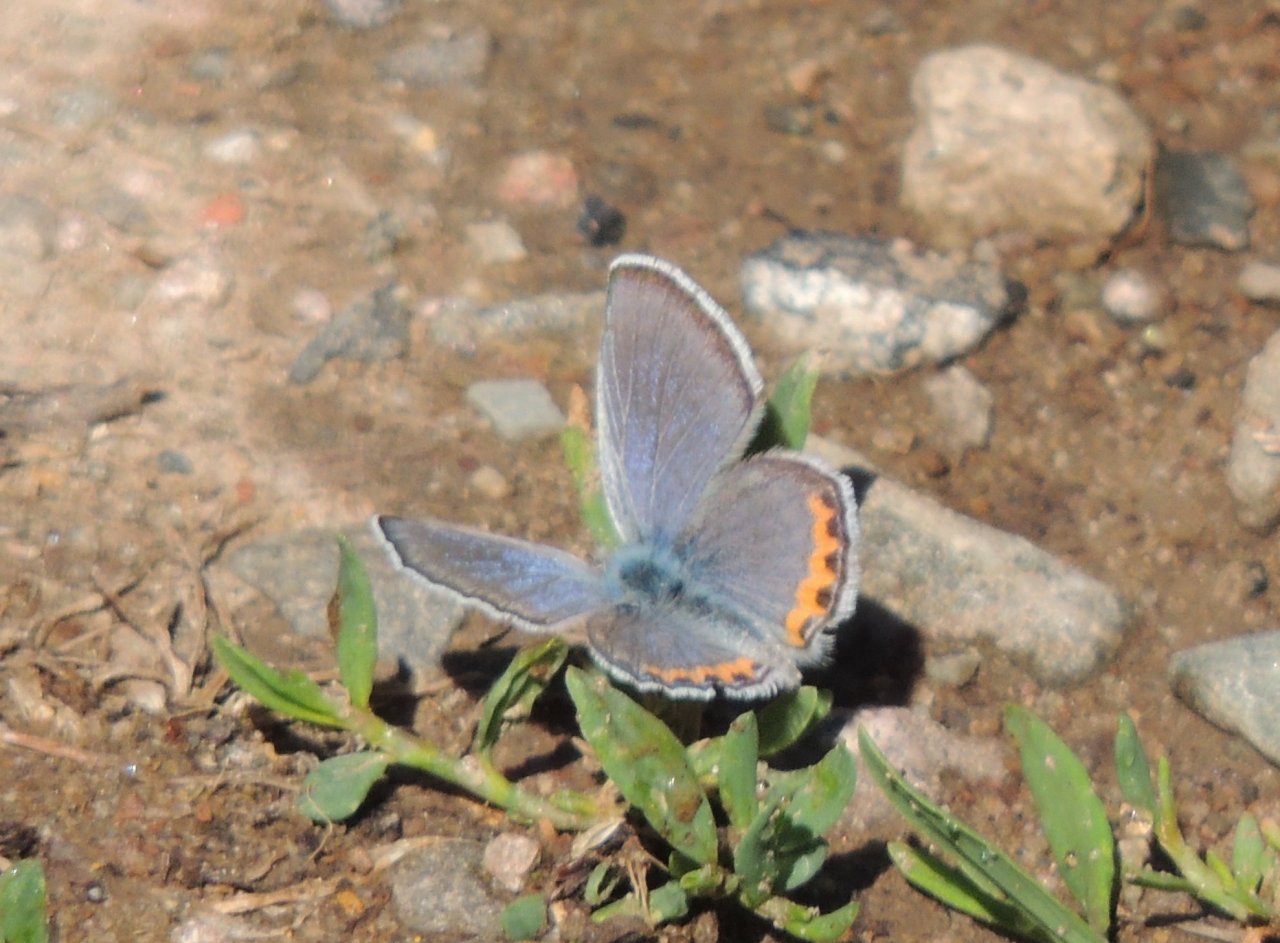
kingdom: Animalia
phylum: Arthropoda
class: Insecta
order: Lepidoptera
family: Lycaenidae
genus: Plebejus
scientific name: Plebejus lupini
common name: Lupine Blue
